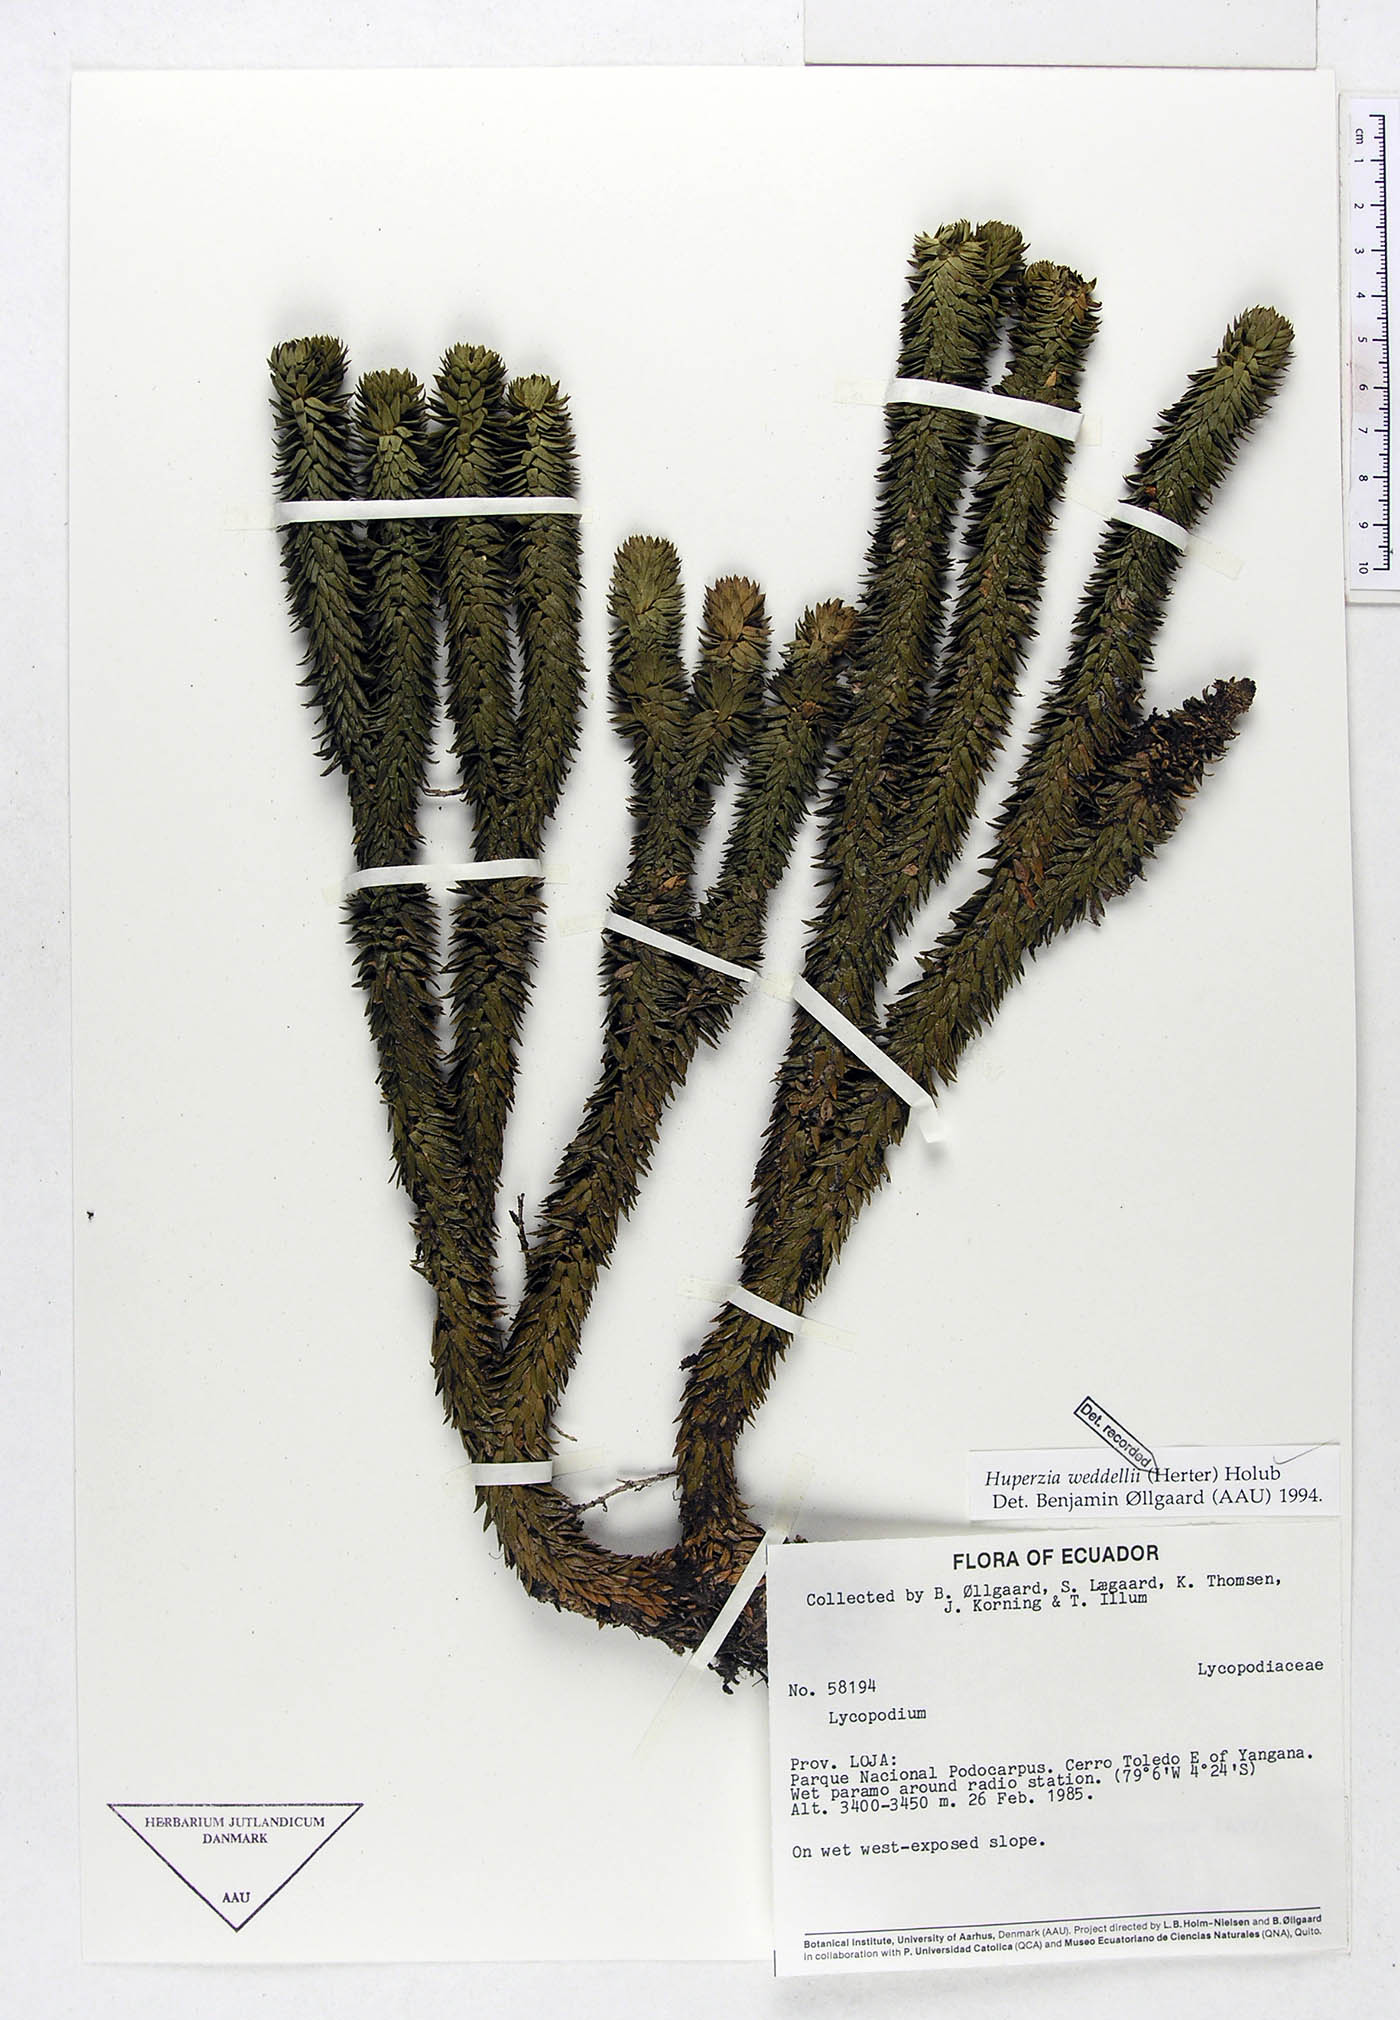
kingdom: Plantae
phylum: Tracheophyta
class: Lycopodiopsida
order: Lycopodiales
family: Lycopodiaceae
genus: Phlegmariurus
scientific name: Phlegmariurus weddellii
